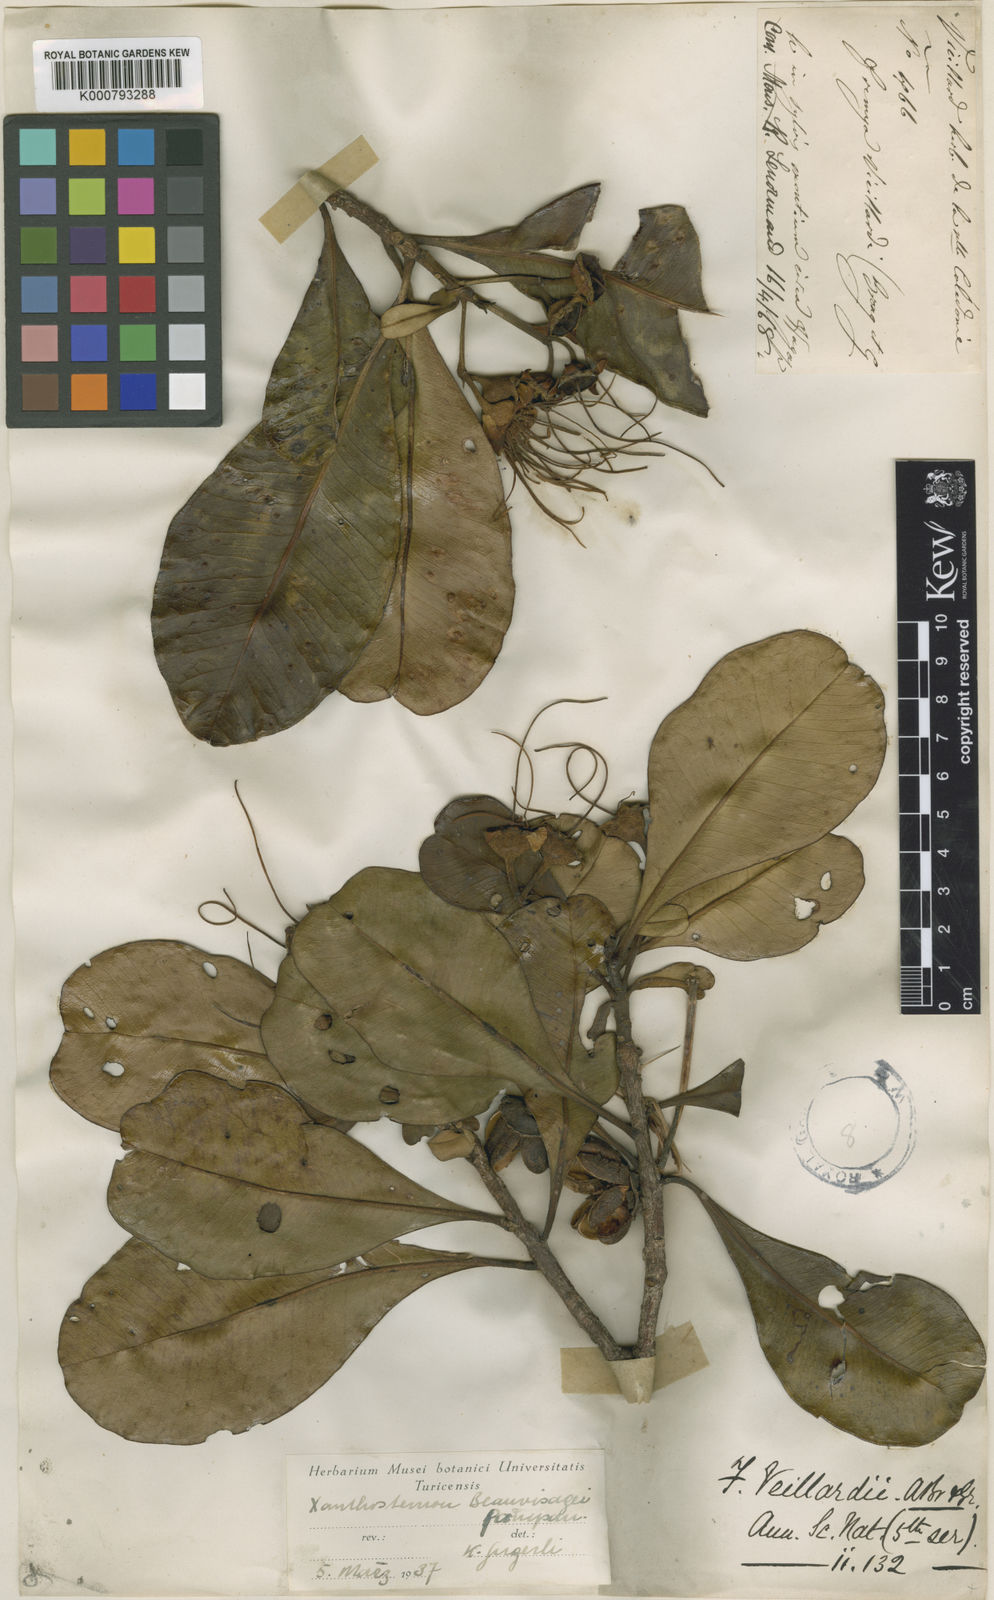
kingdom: Plantae
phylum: Tracheophyta
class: Magnoliopsida
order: Myrtales
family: Myrtaceae
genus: Xanthostemon
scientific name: Xanthostemon vieillardii
